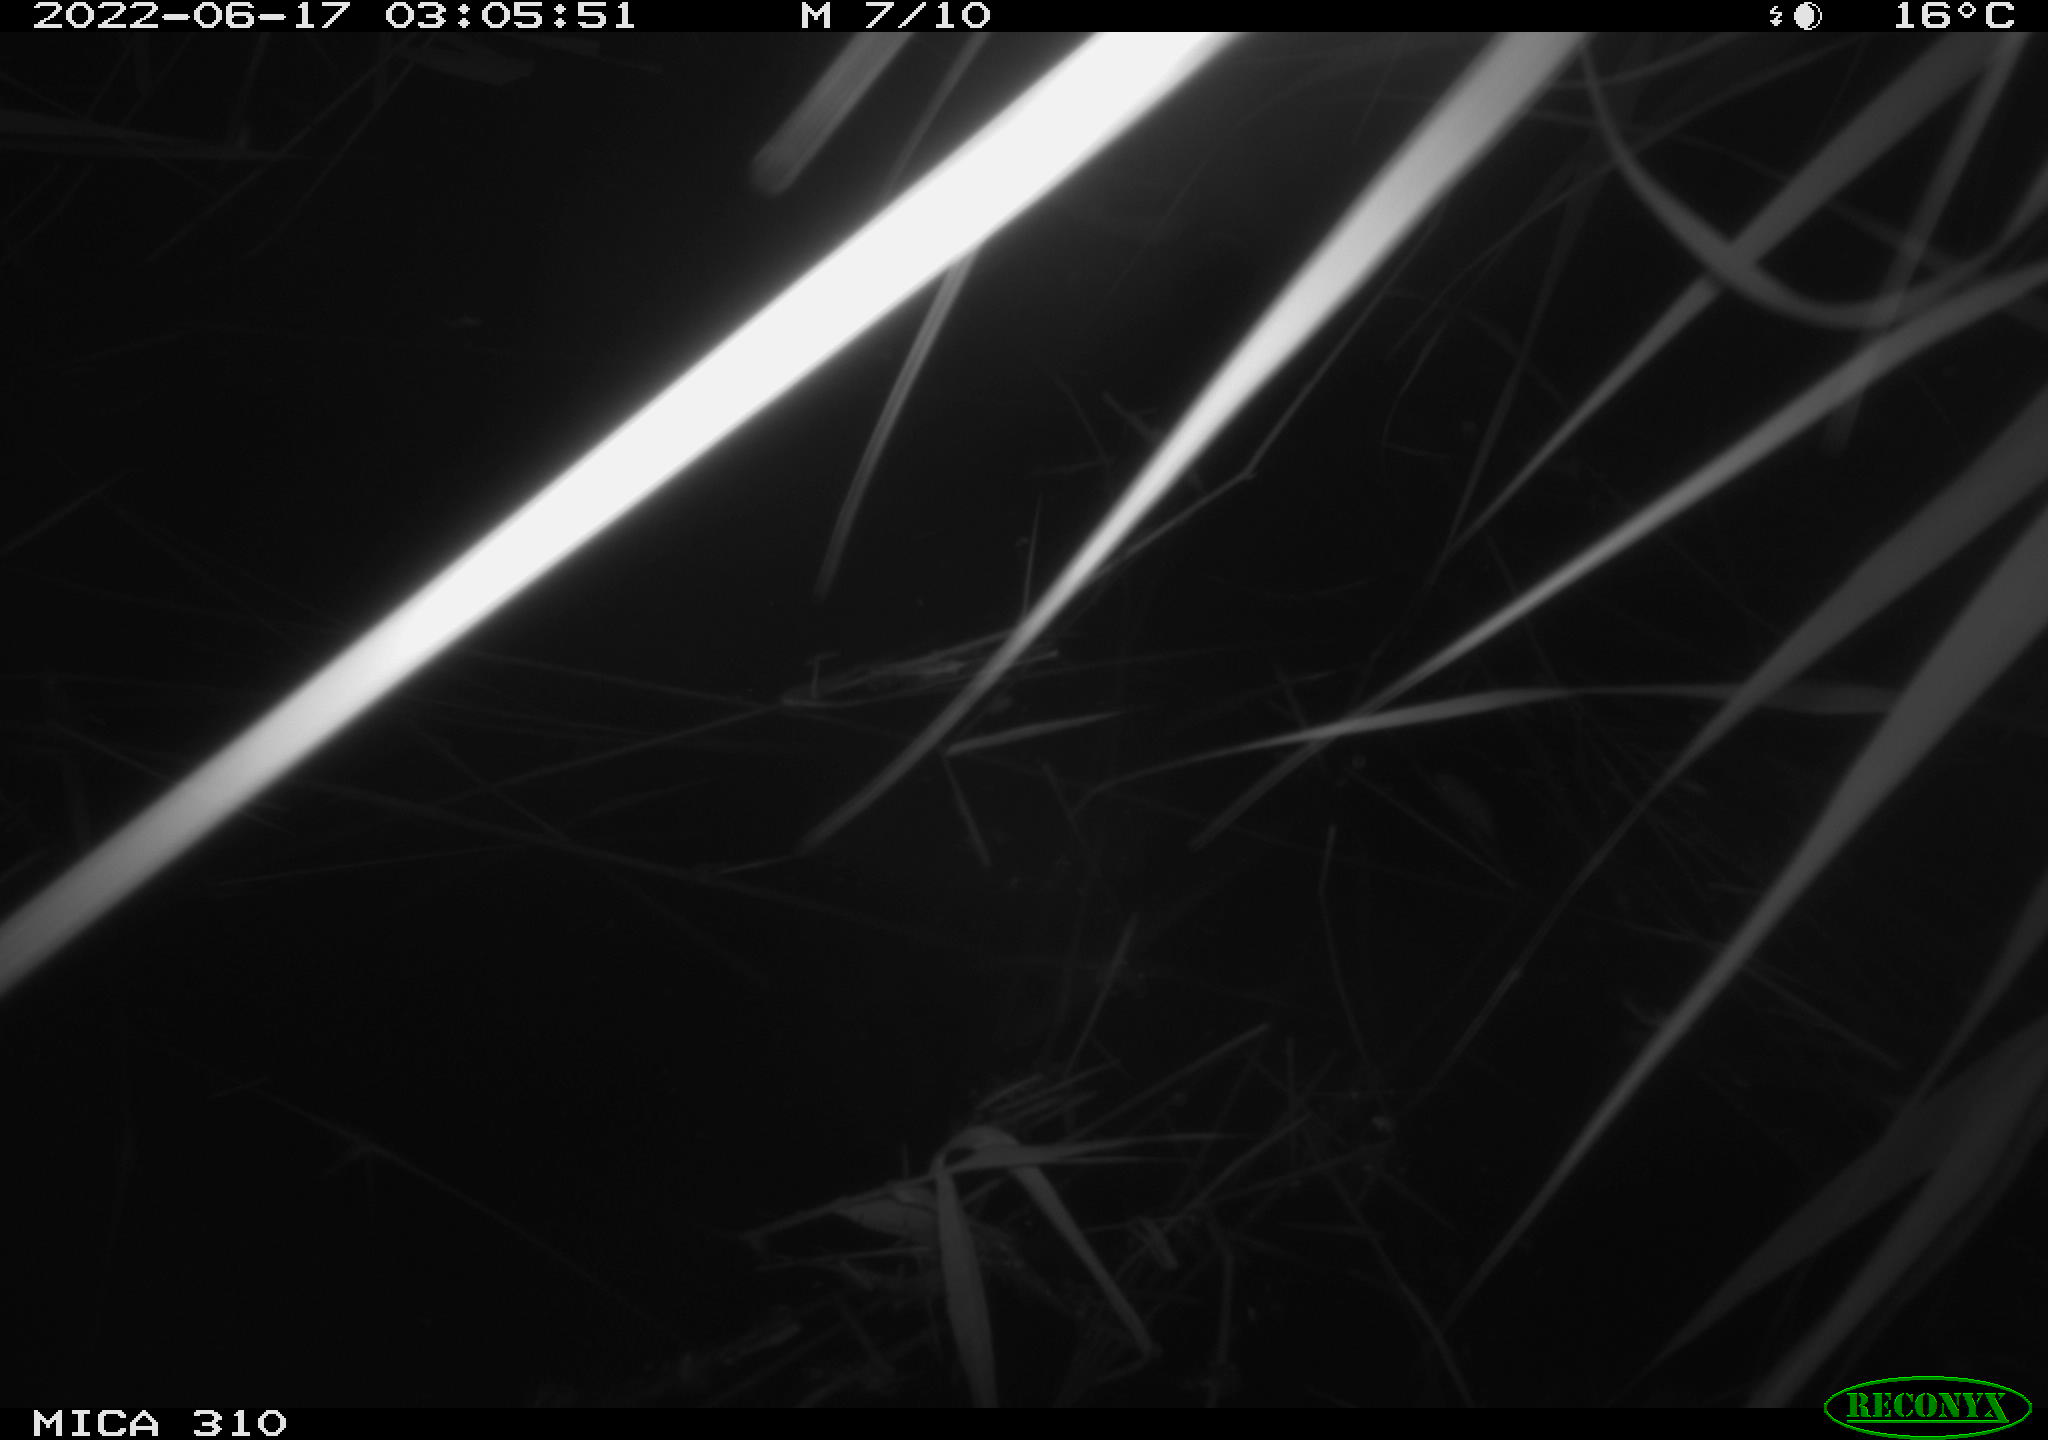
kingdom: Animalia
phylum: Chordata
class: Aves
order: Anseriformes
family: Anatidae
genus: Anas
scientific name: Anas platyrhynchos
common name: Mallard
